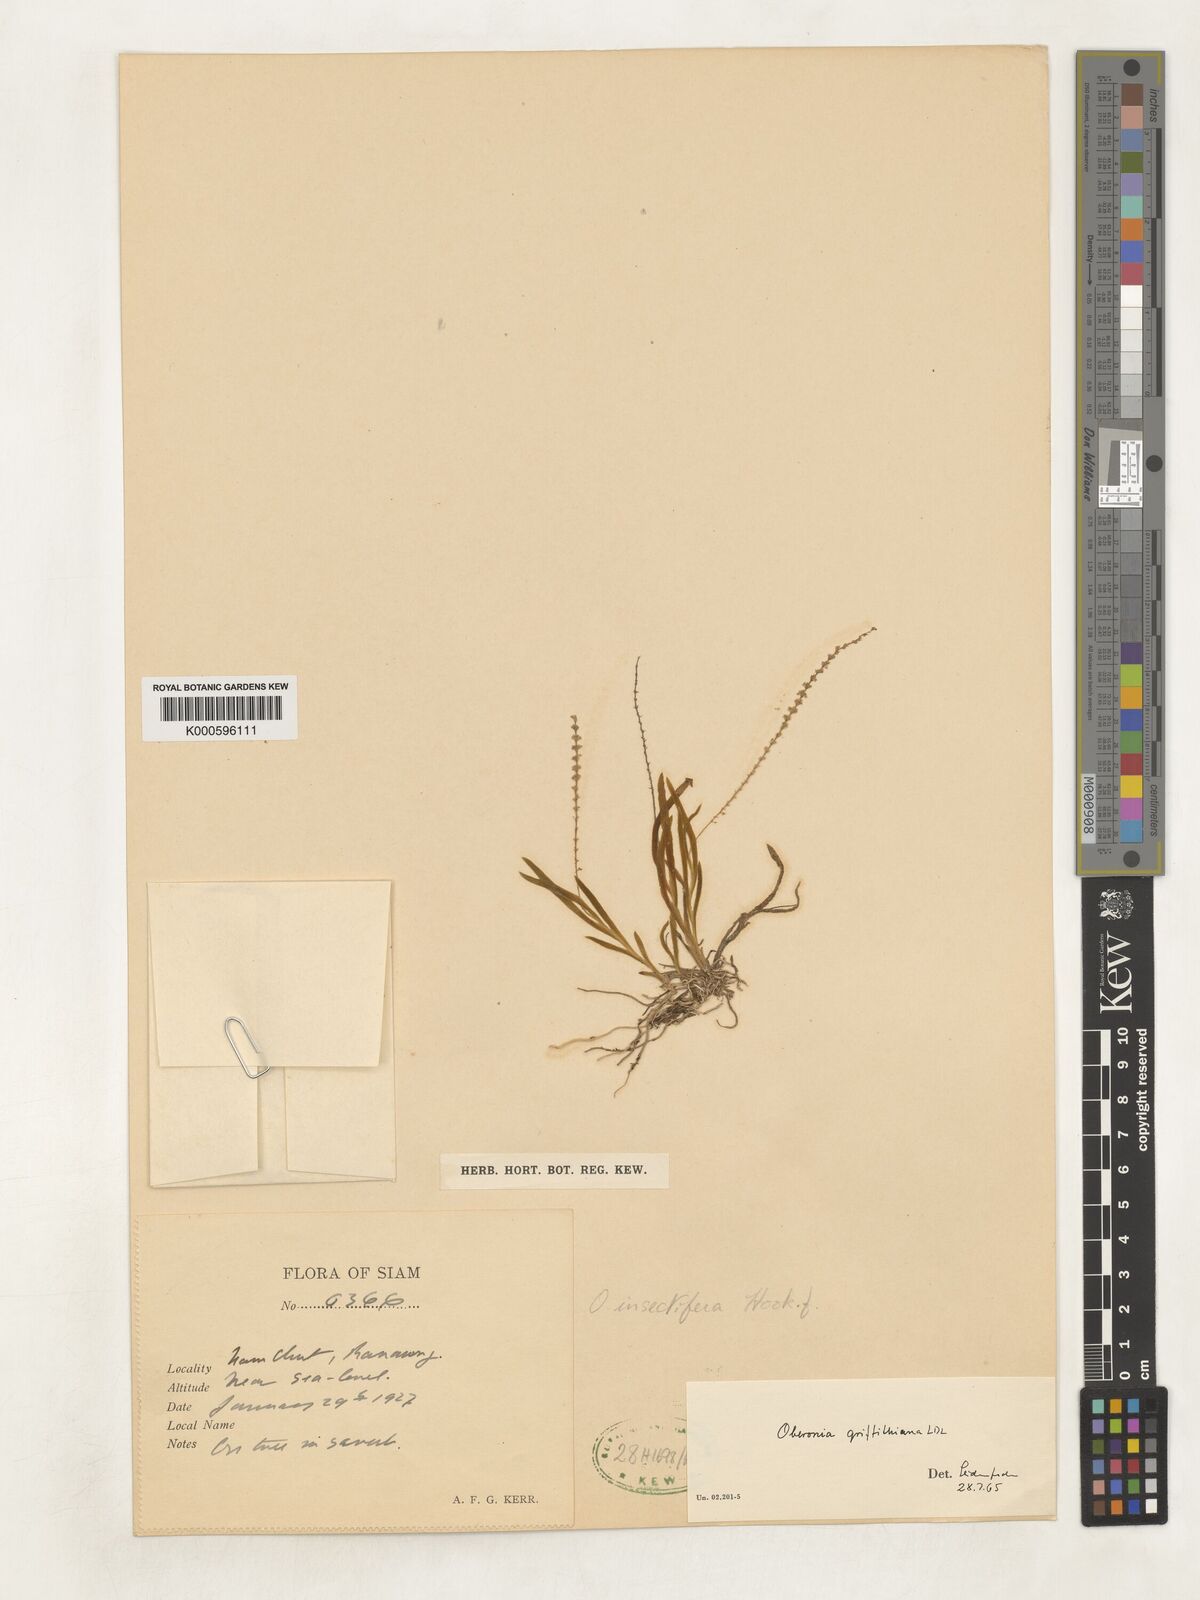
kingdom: Plantae
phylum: Tracheophyta
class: Liliopsida
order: Asparagales
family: Orchidaceae
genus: Oberonia
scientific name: Oberonia griffithiana
